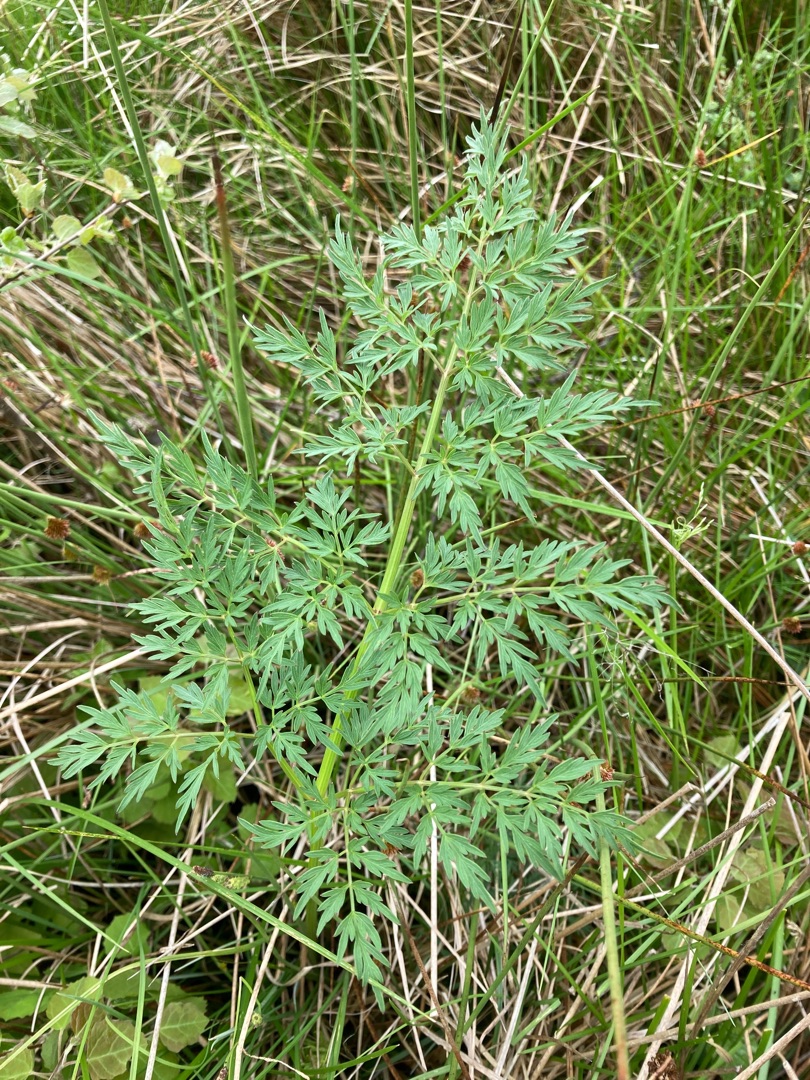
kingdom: Plantae
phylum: Tracheophyta
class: Magnoliopsida
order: Apiales
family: Apiaceae
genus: Thysselinum
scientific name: Thysselinum palustre
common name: Kær-svovlrod
